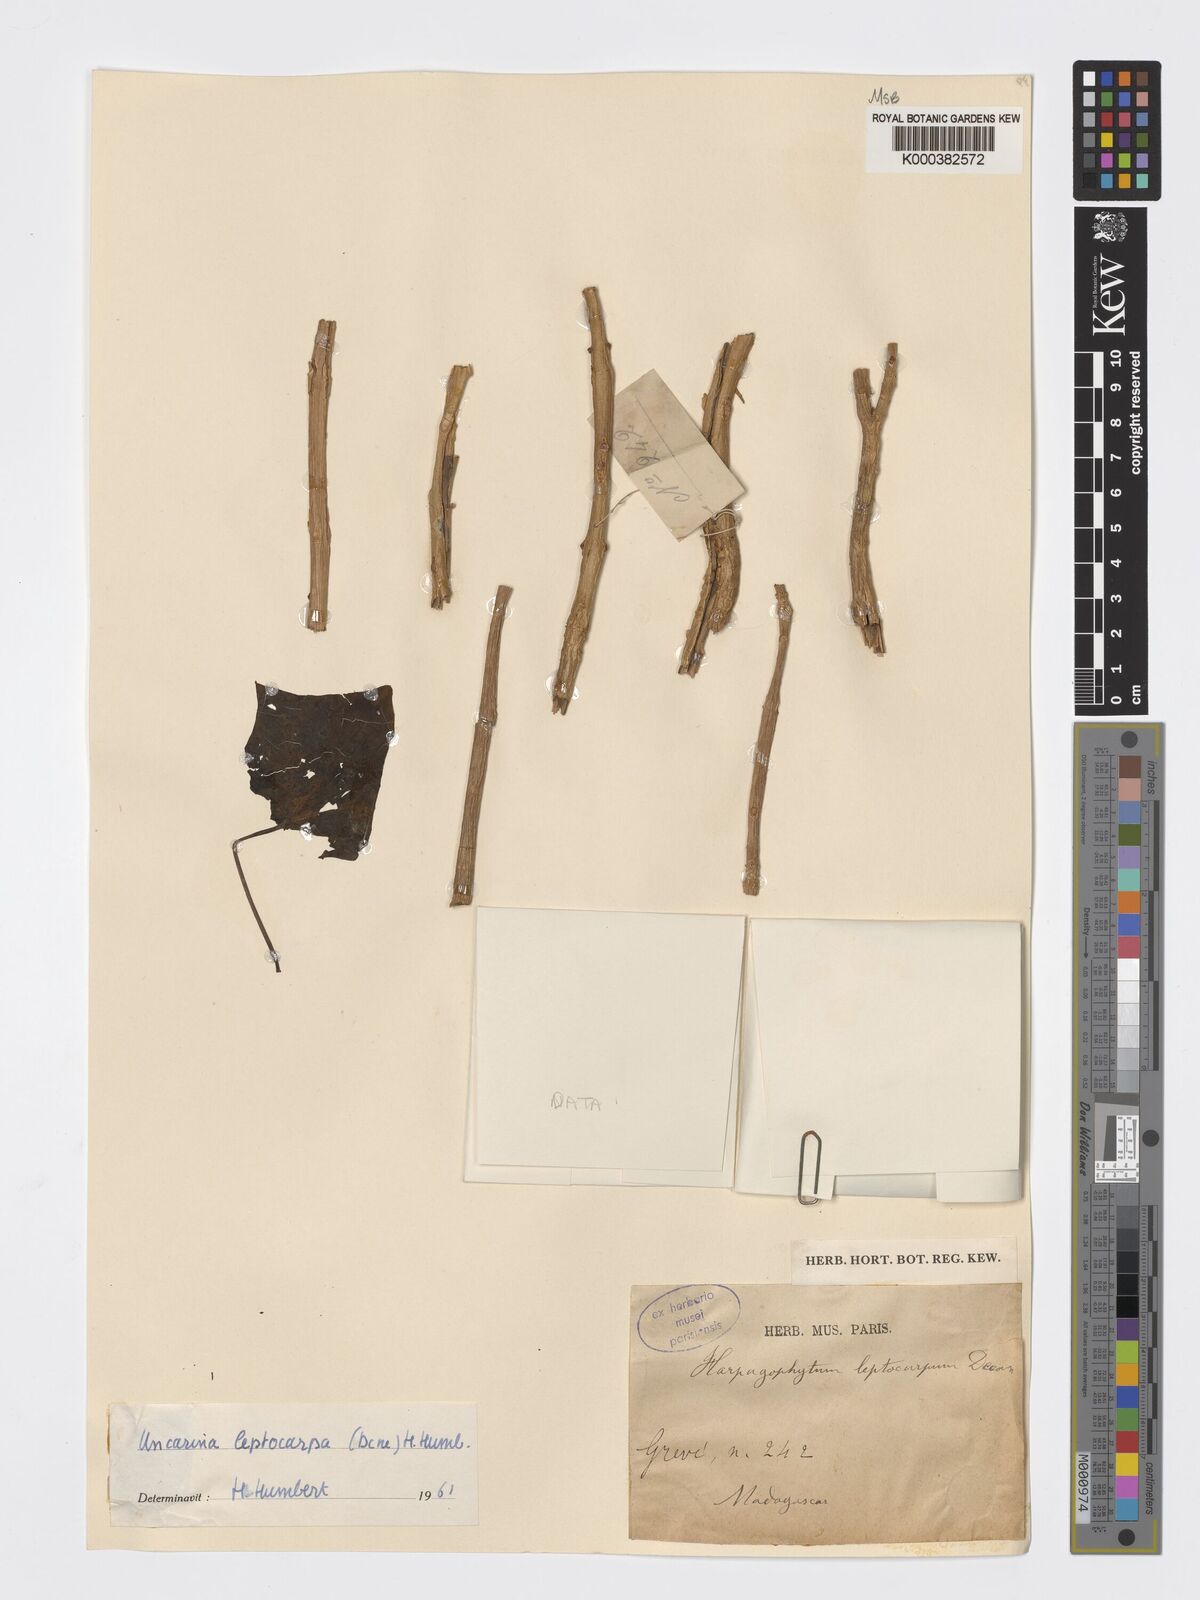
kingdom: Plantae
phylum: Tracheophyta
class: Magnoliopsida
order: Lamiales
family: Pedaliaceae
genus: Uncarina
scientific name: Uncarina leptocarpa
